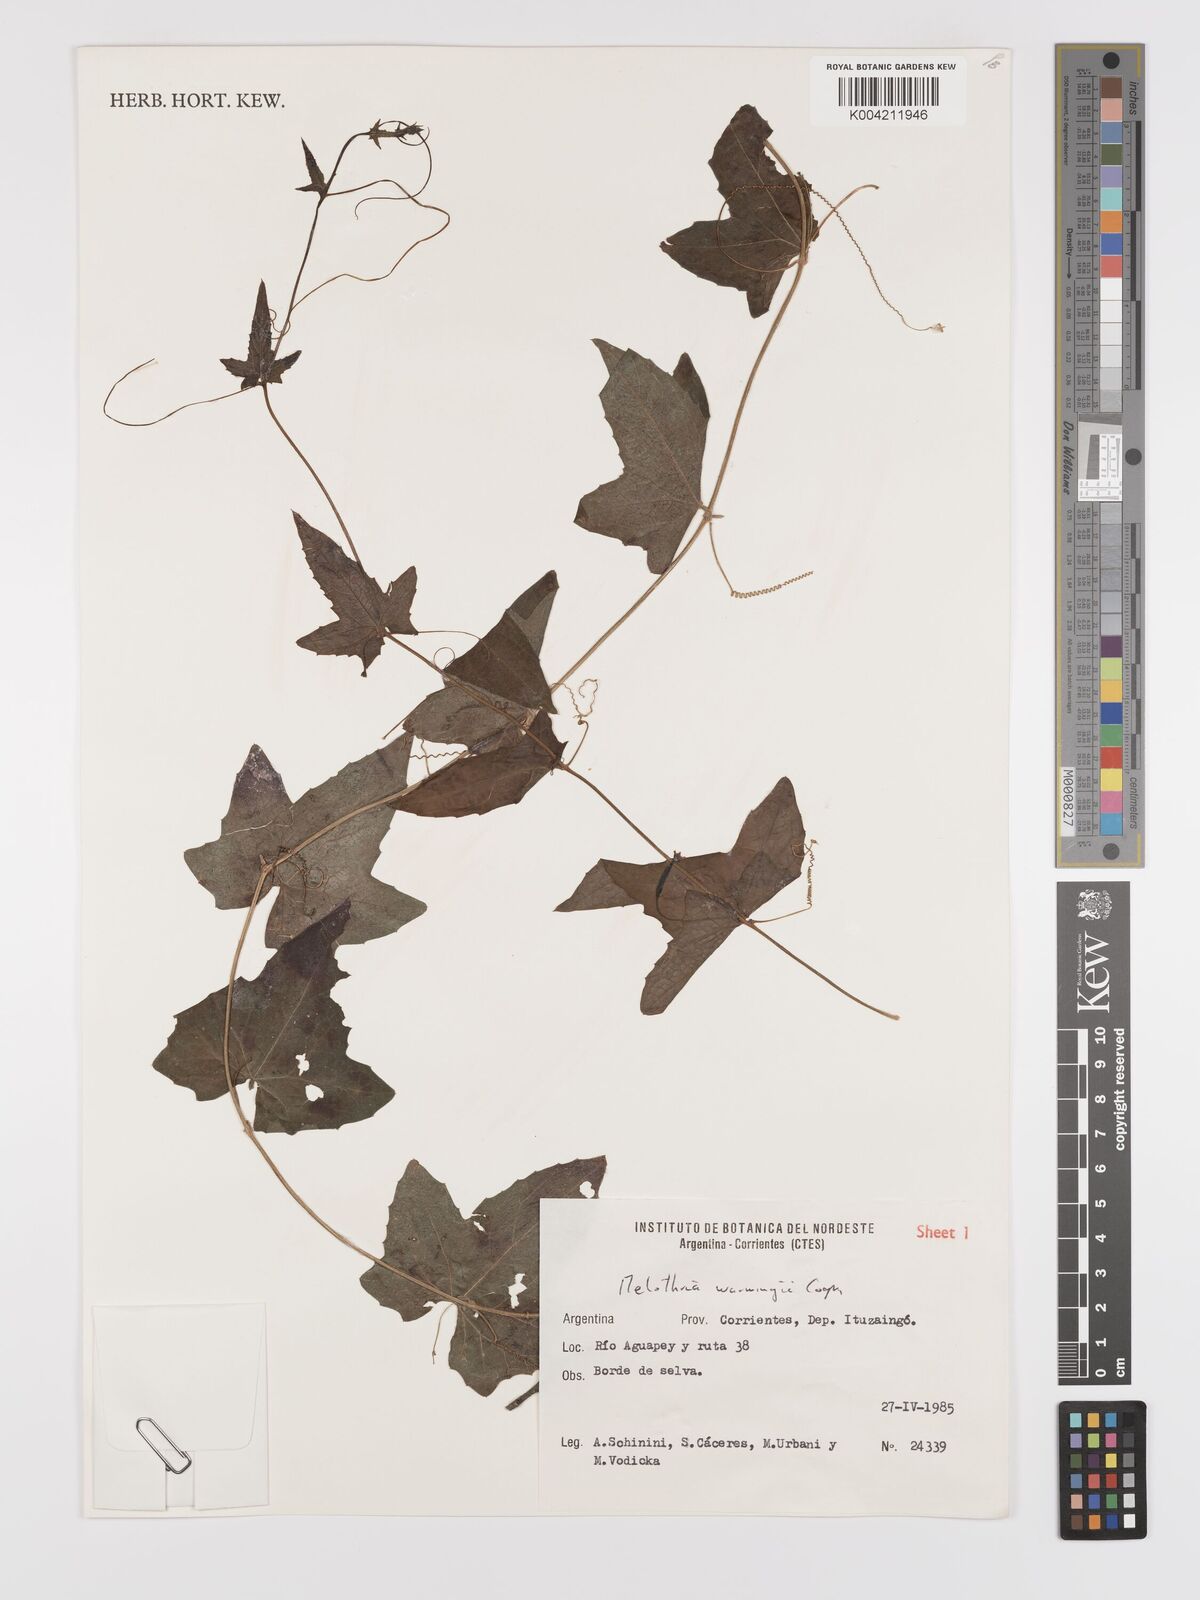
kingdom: Plantae
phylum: Tracheophyta
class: Magnoliopsida
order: Cucurbitales
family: Cucurbitaceae
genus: Melothria
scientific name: Melothria warmingii
